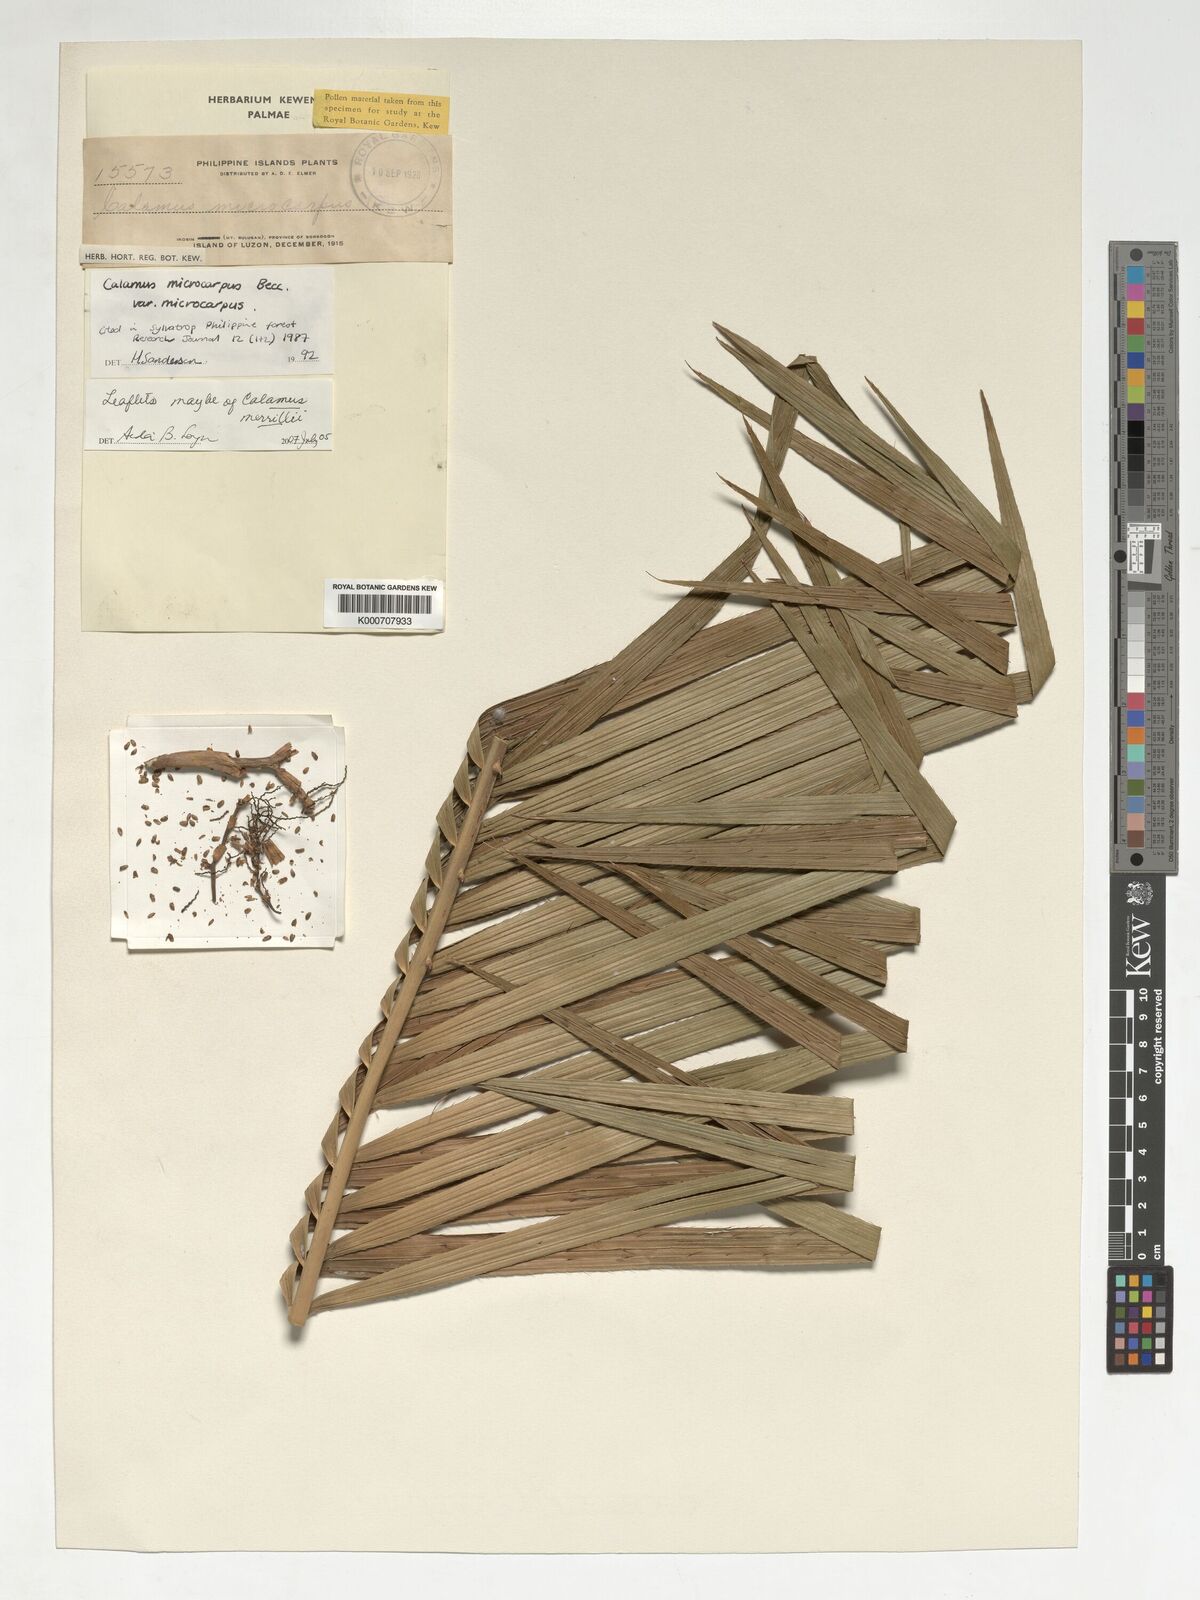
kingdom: Plantae
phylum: Tracheophyta
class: Liliopsida
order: Arecales
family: Arecaceae
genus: Calamus
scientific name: Calamus siphonospathus
